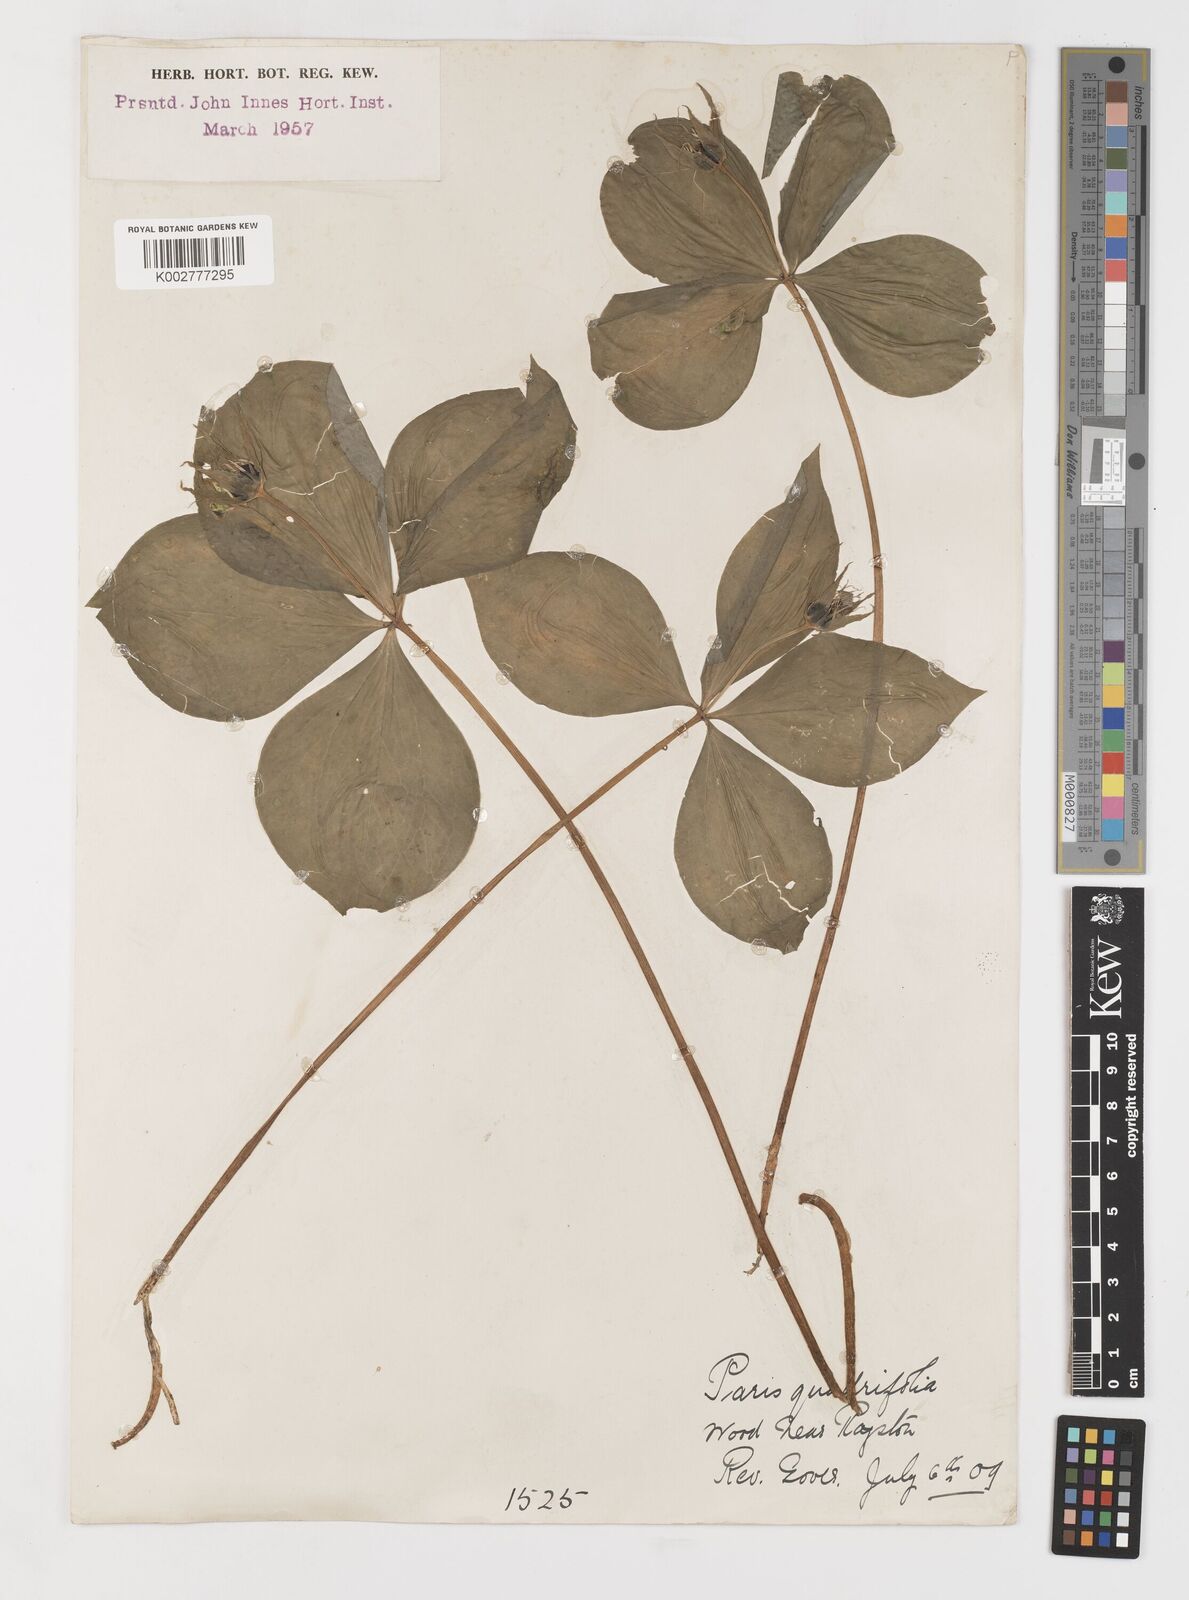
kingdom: Plantae
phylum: Tracheophyta
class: Liliopsida
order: Liliales
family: Melanthiaceae
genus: Paris
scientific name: Paris quadrifolia
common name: Herb-paris
